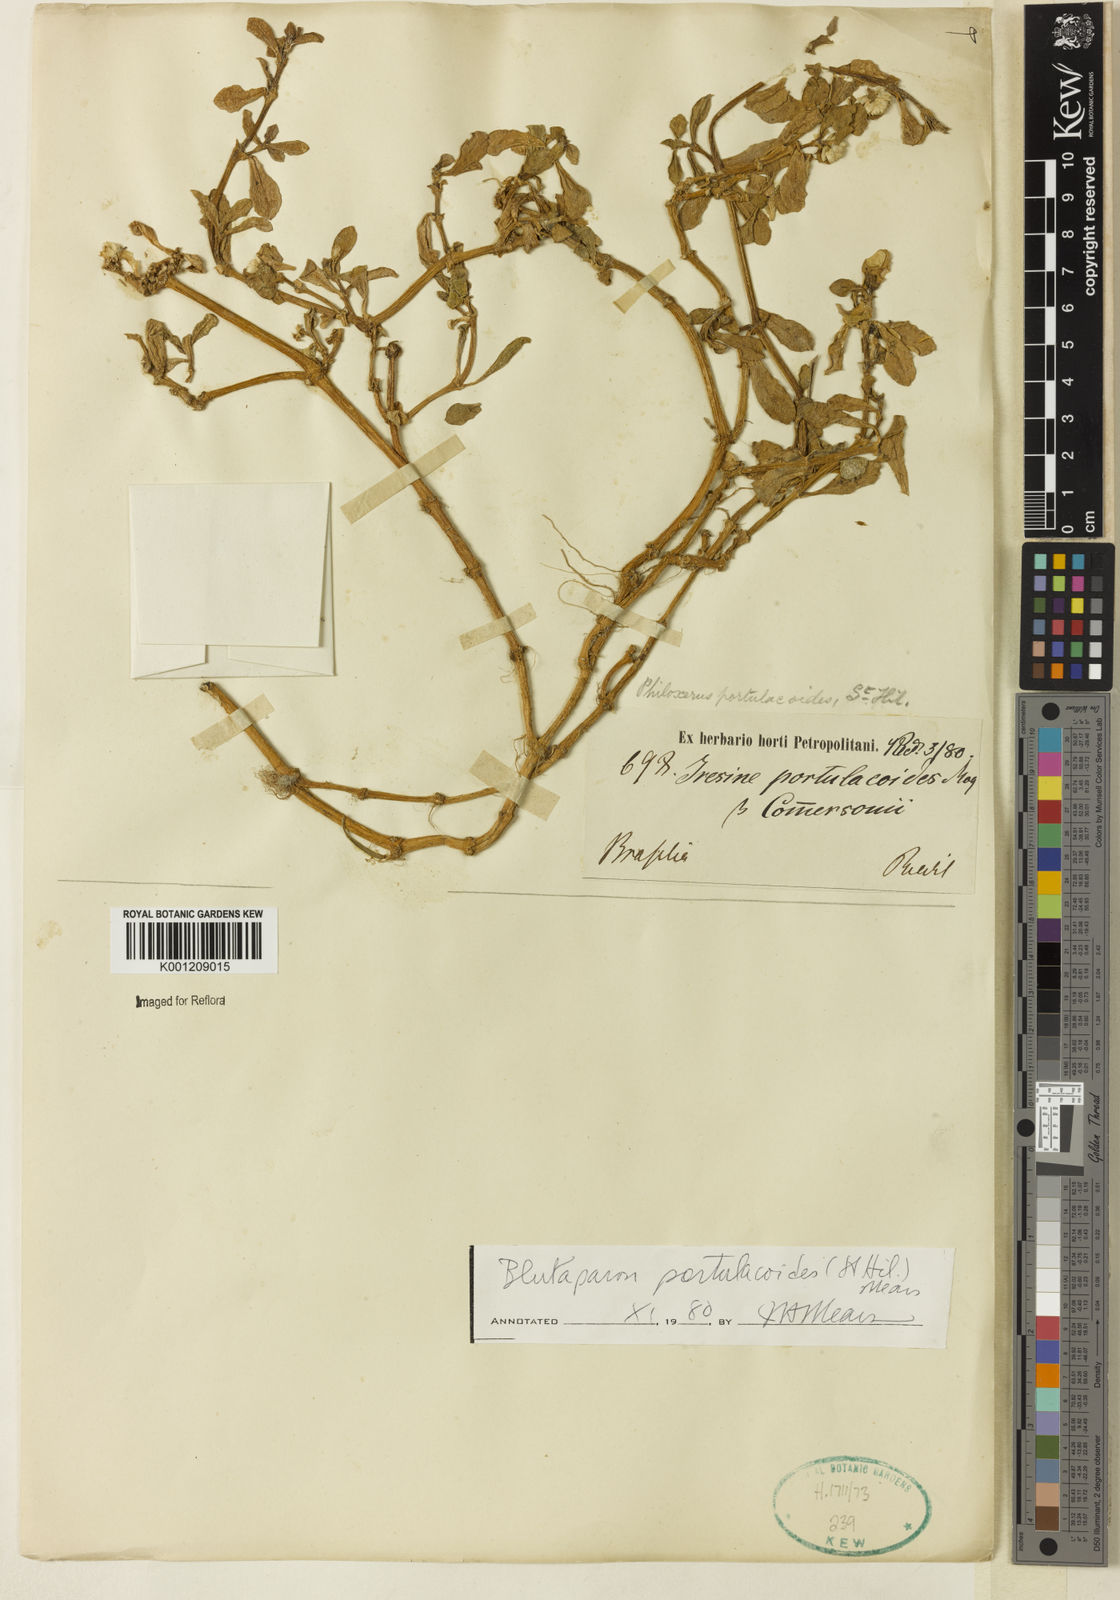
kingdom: Plantae
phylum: Tracheophyta
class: Magnoliopsida
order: Caryophyllales
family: Amaranthaceae
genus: Gomphrena
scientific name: Gomphrena portulacoides
